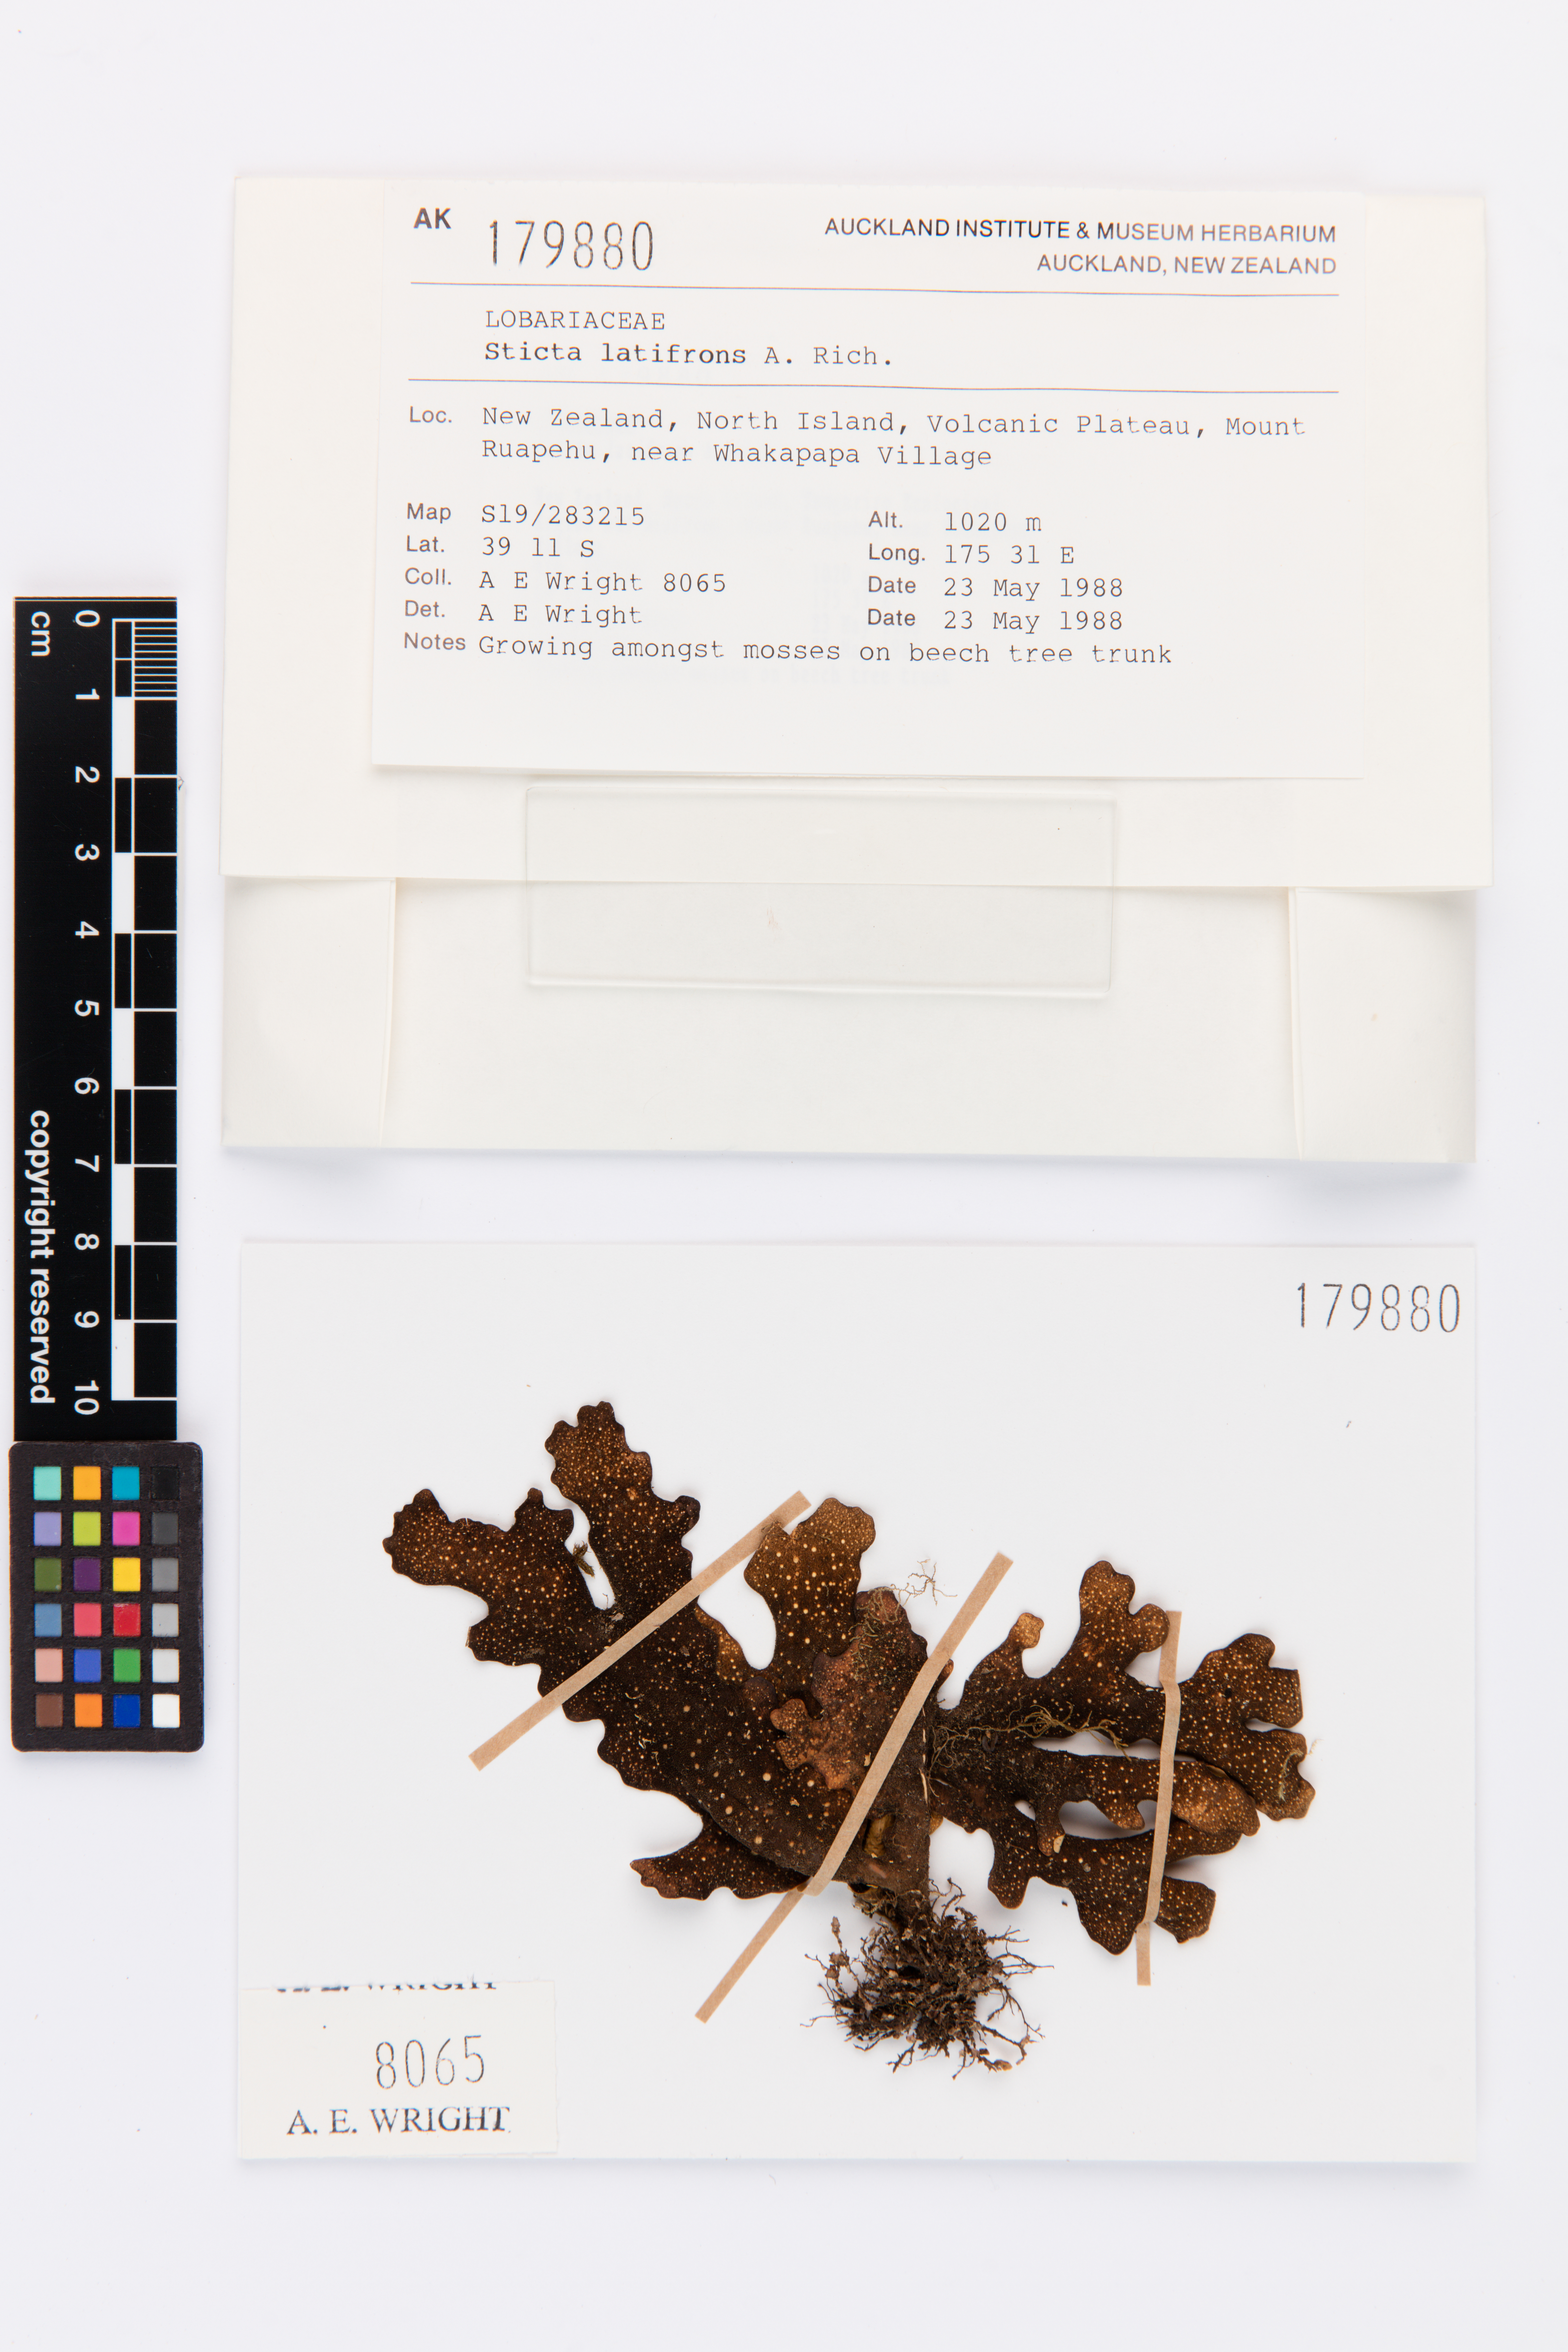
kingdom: Fungi
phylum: Ascomycota
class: Lecanoromycetes
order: Peltigerales
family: Lobariaceae
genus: Sticta
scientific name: Sticta latifrons
